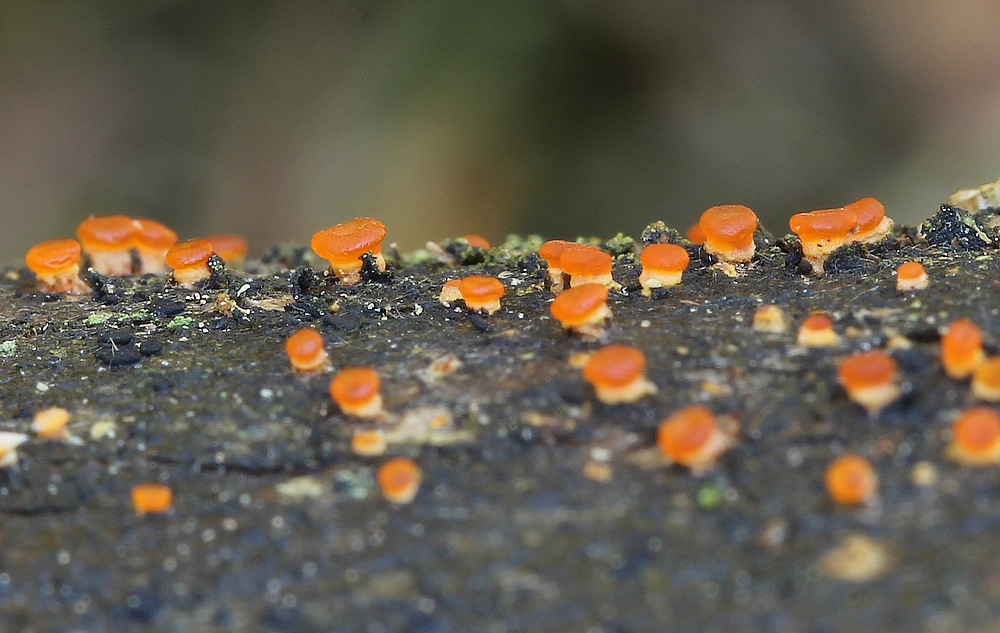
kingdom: Fungi
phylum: Basidiomycota
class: Dacrymycetes
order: Dacrymycetales
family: Dacrymycetaceae
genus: Dacrymyces
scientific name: Dacrymyces capitatus
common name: stilket tåresvamp
